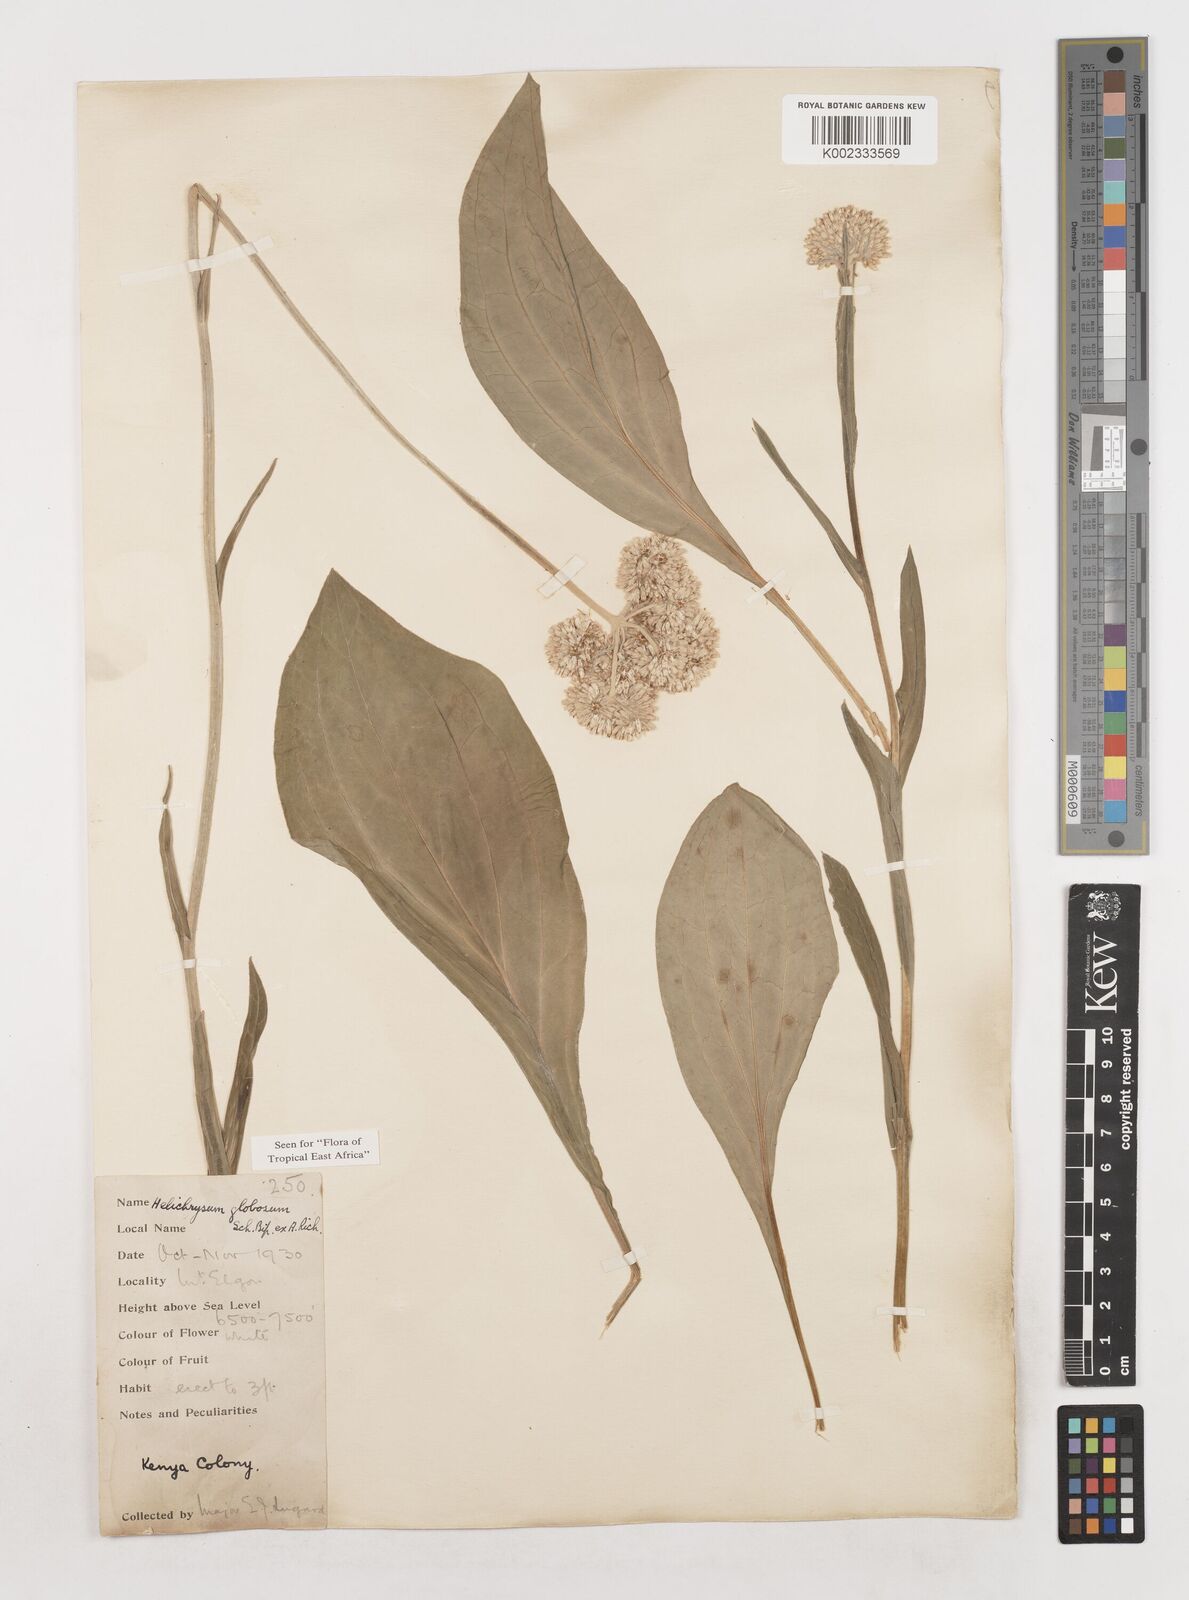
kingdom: Plantae
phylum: Tracheophyta
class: Magnoliopsida
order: Asterales
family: Asteraceae
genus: Helichrysum
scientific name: Helichrysum globosum
